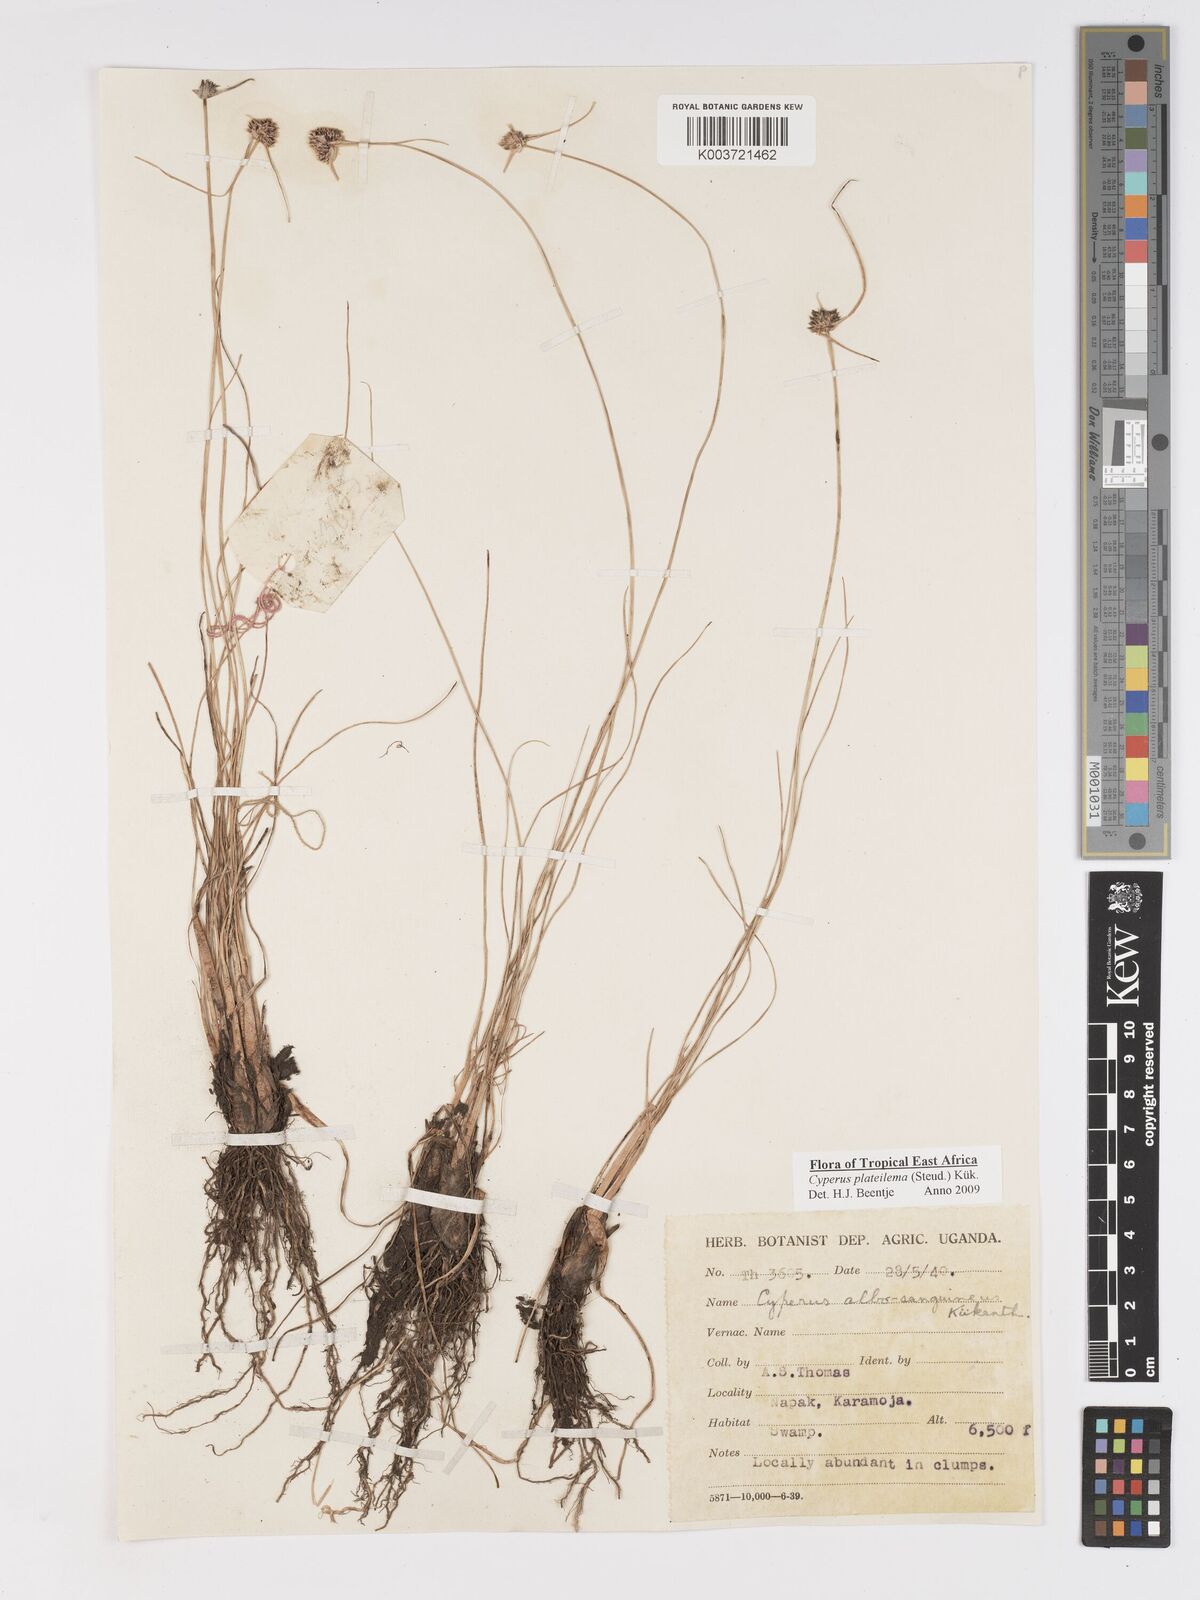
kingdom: Plantae
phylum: Tracheophyta
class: Liliopsida
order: Poales
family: Cyperaceae
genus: Cyperus
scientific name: Cyperus plateilema
